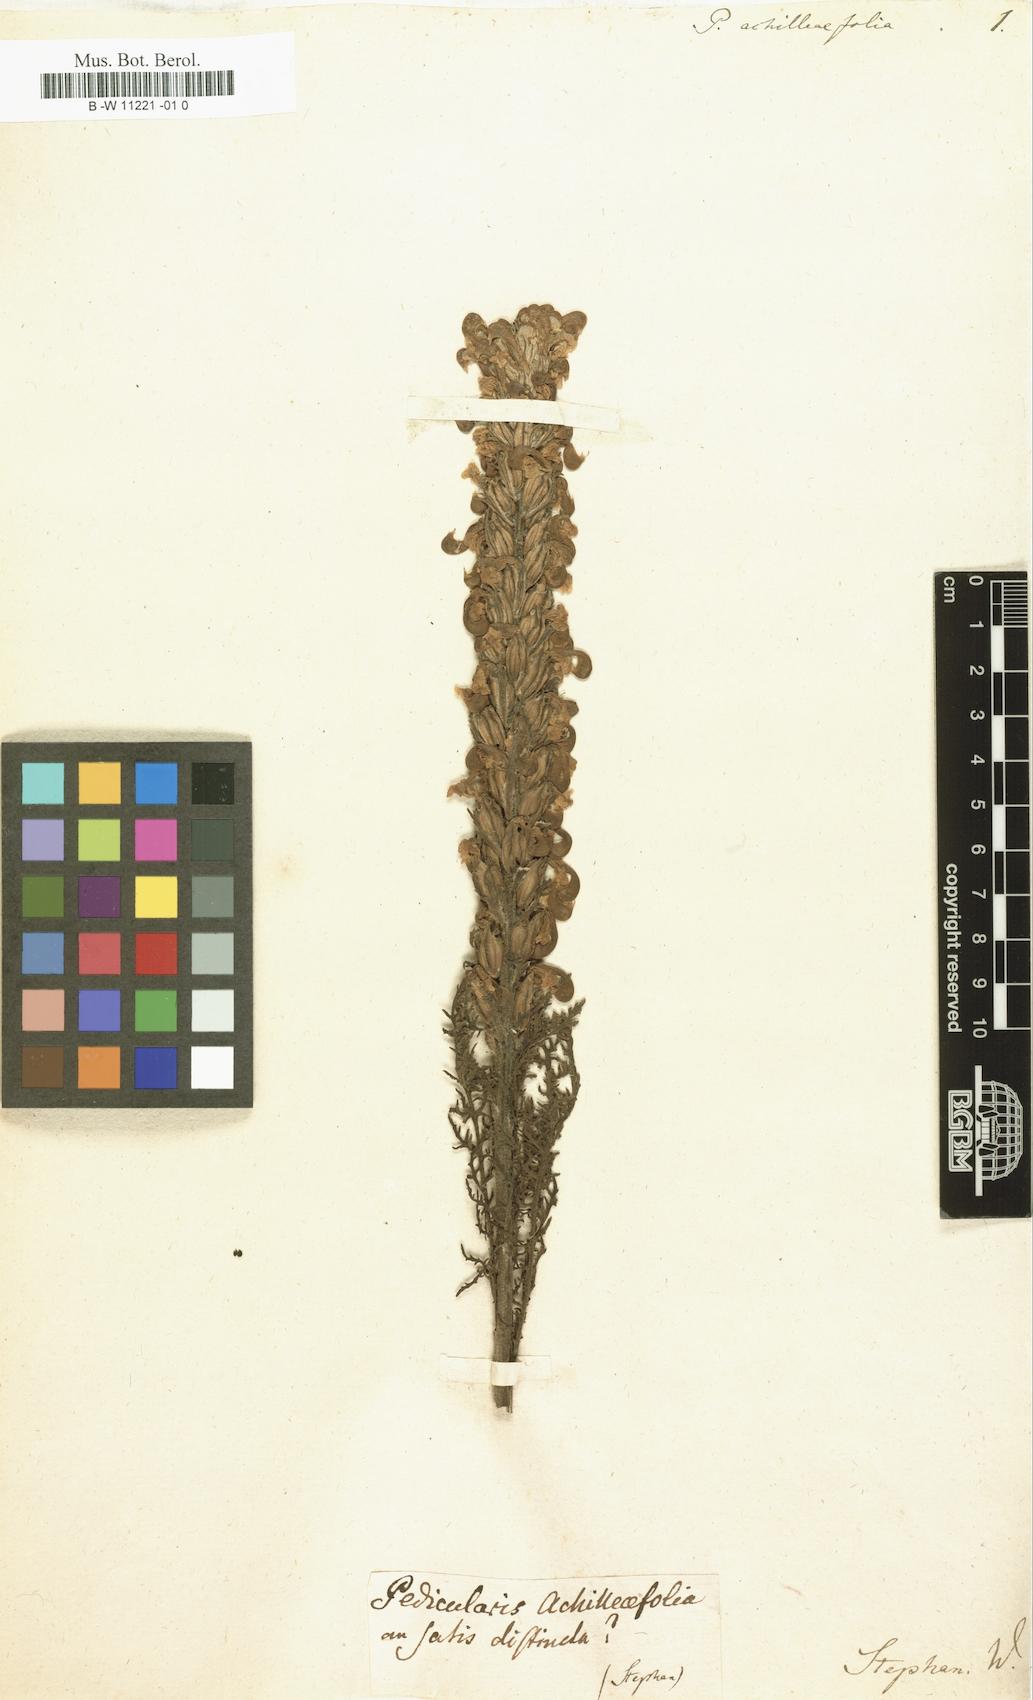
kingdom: Plantae
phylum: Tracheophyta
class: Magnoliopsida
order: Lamiales
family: Orobanchaceae
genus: Pedicularis
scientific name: Pedicularis achilleifolia
